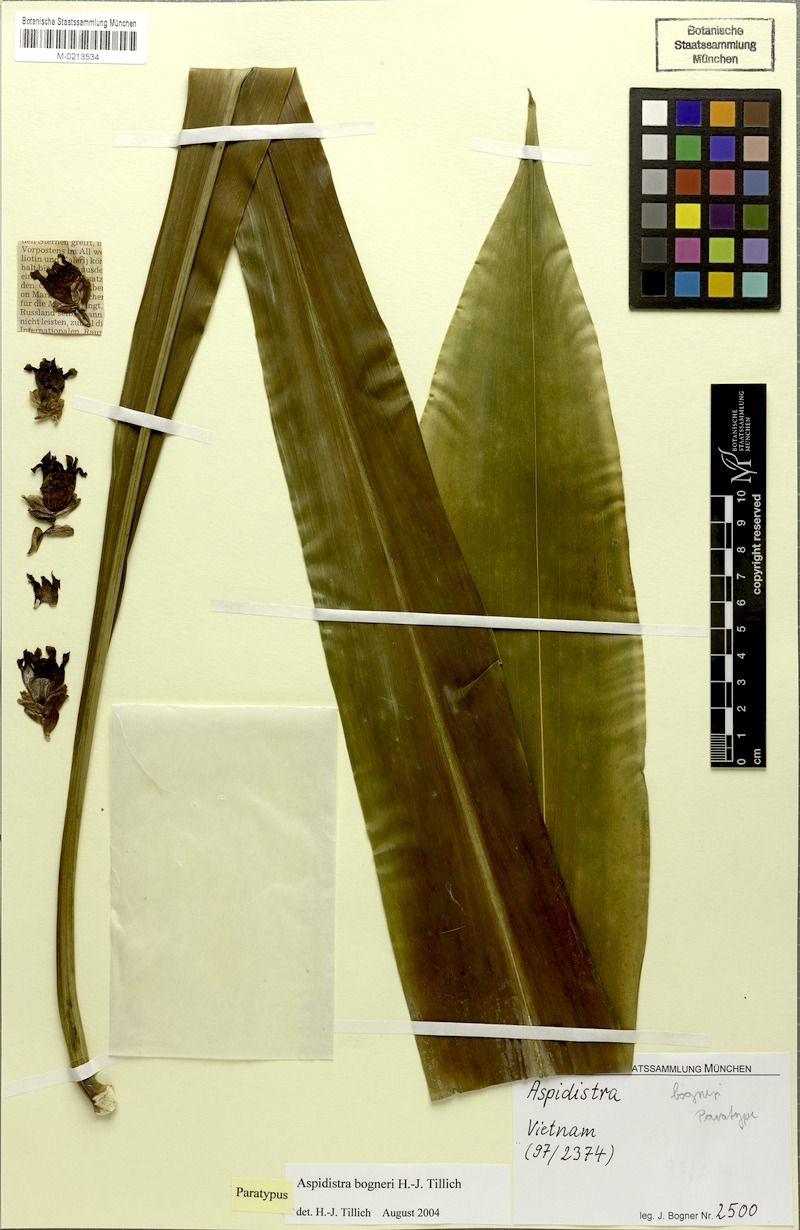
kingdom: Plantae
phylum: Tracheophyta
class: Liliopsida
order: Asparagales
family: Asparagaceae
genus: Aspidistra
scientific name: Aspidistra bogneri
